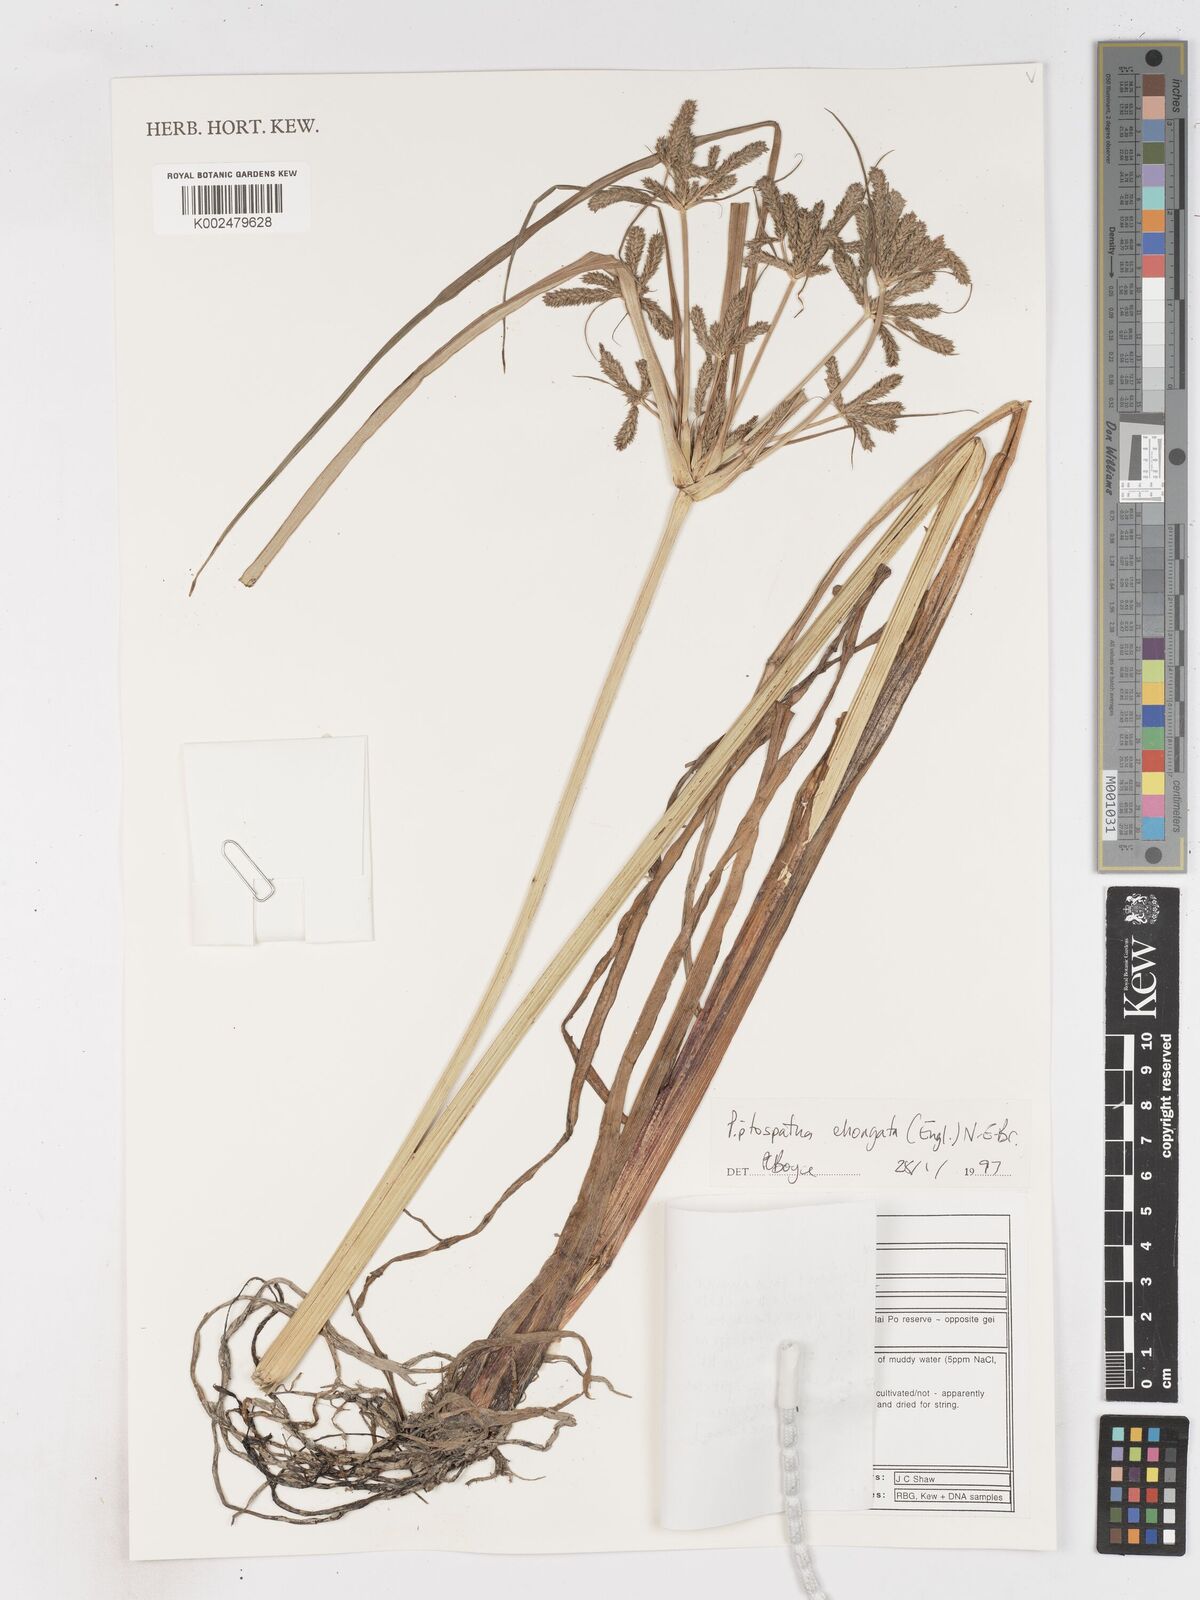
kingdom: Plantae
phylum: Tracheophyta
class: Liliopsida
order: Poales
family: Cyperaceae
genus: Cyperus
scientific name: Cyperus imbricatus
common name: Shingle flatsedge
